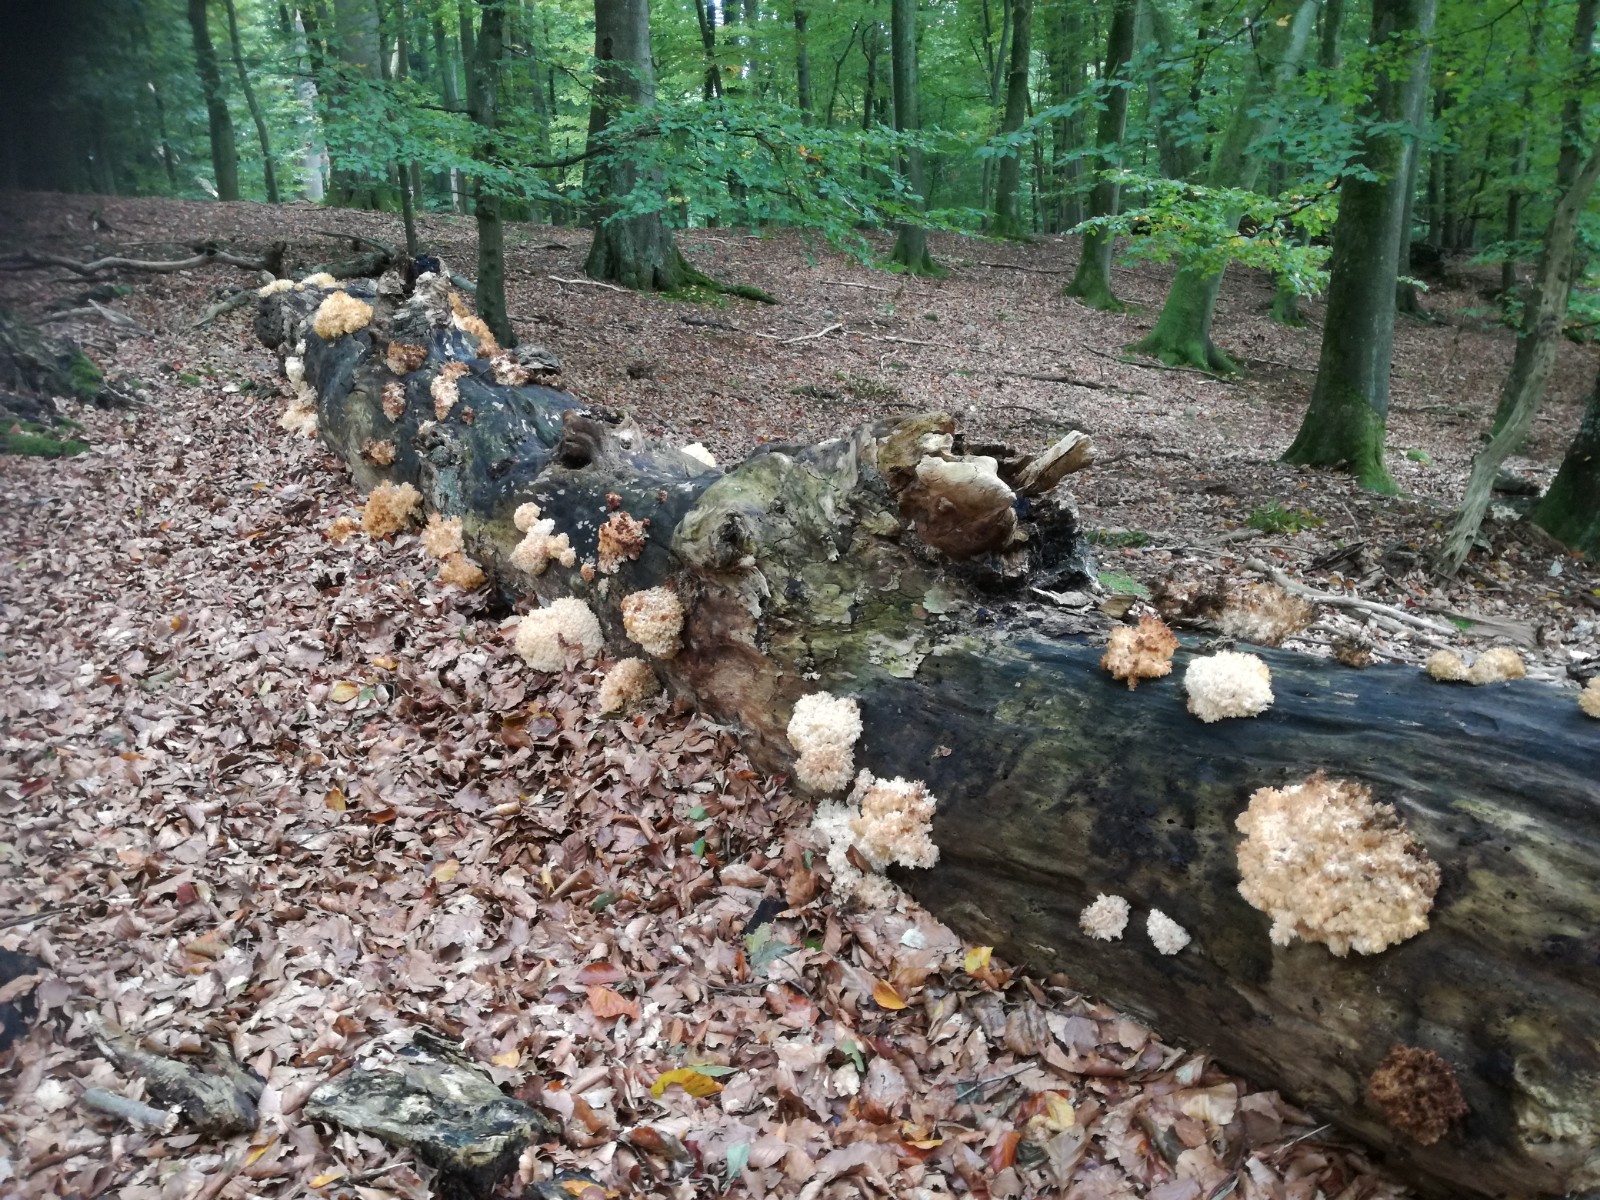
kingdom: Fungi
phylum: Basidiomycota
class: Agaricomycetes
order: Russulales
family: Hericiaceae
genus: Hericium
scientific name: Hericium coralloides
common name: koralpigsvamp
